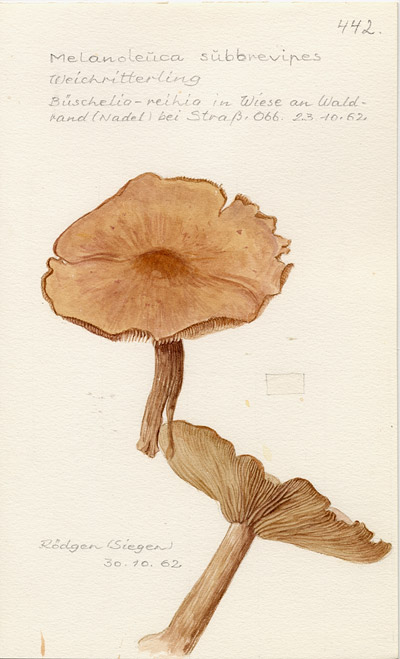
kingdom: Fungi
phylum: Basidiomycota
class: Agaricomycetes
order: Agaricales
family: Tricholomataceae
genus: Melanoleuca
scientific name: Melanoleuca grammopodia
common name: Grooved cavalier
